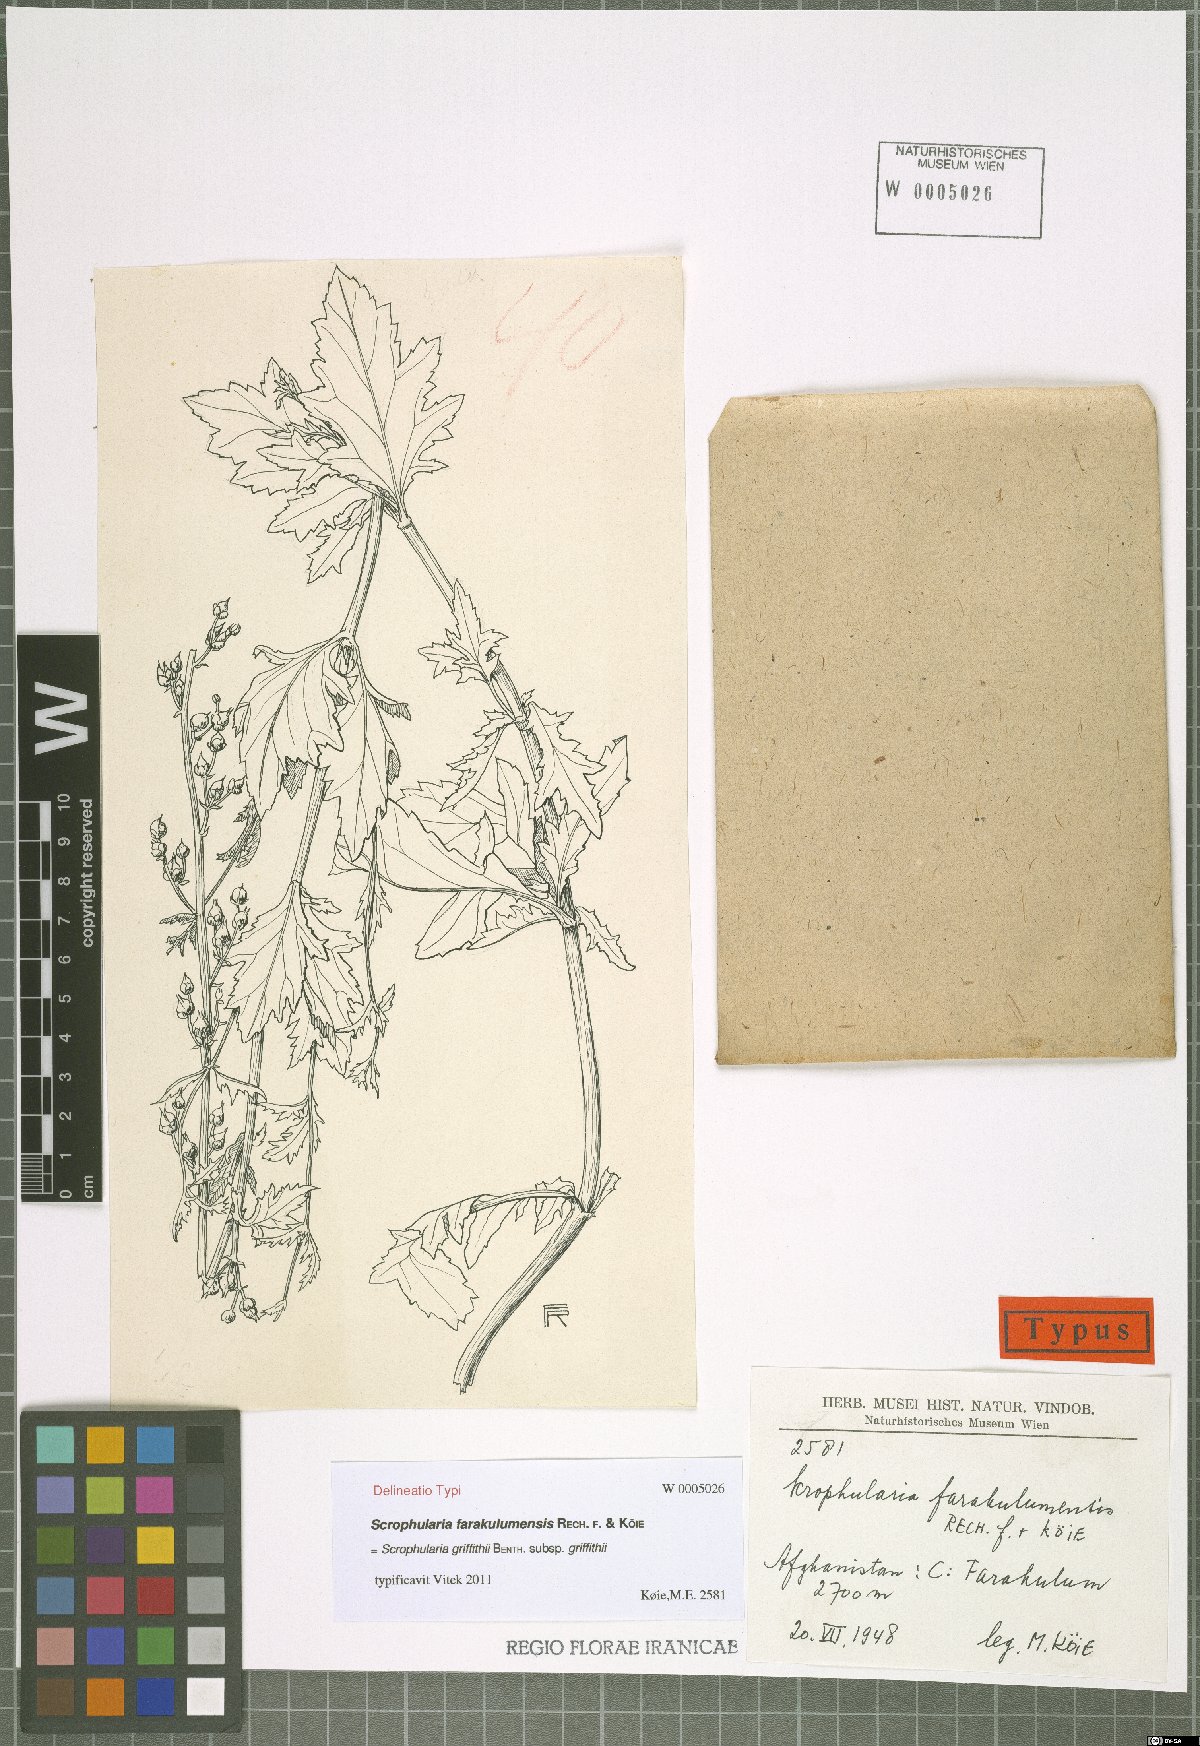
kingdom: Plantae
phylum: Tracheophyta
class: Magnoliopsida
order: Lamiales
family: Scrophulariaceae
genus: Scrophularia
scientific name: Scrophularia griffithii
